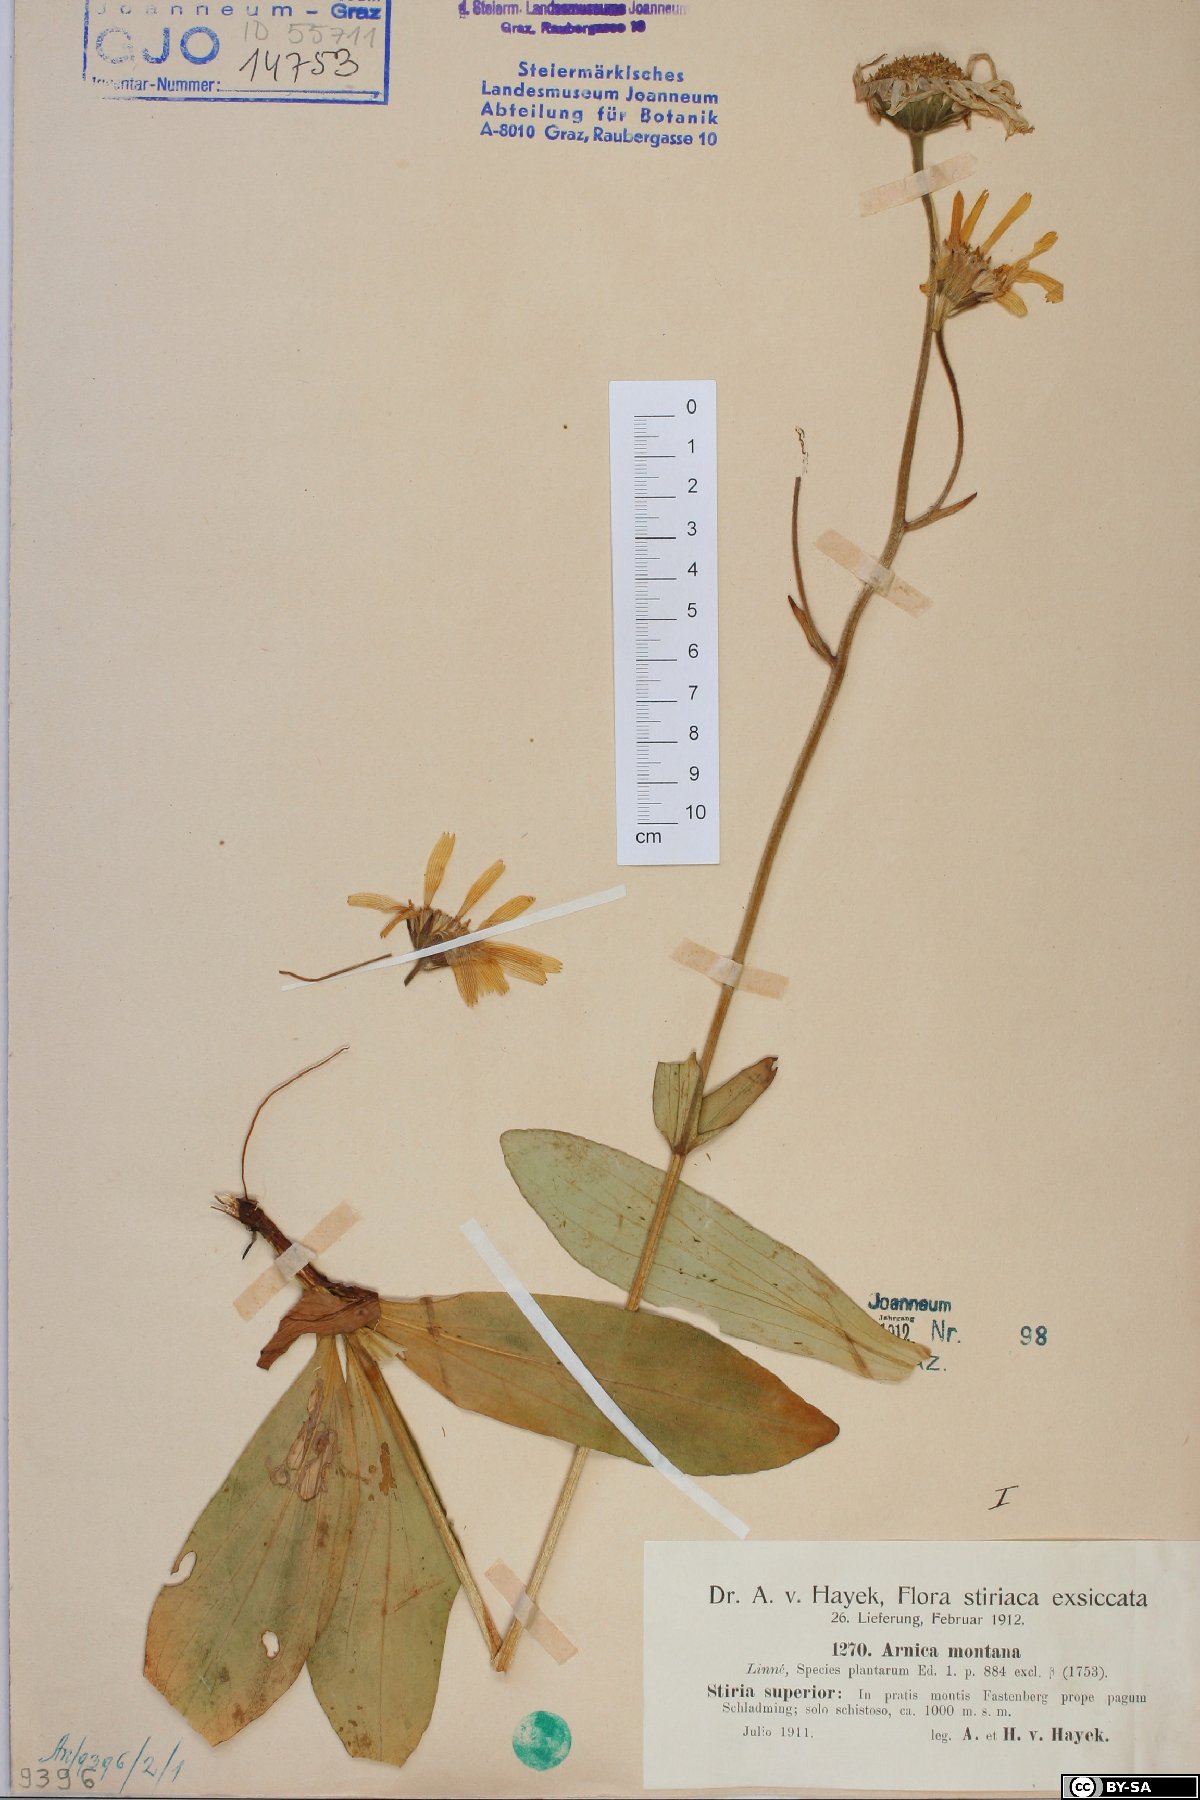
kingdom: Plantae
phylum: Tracheophyta
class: Magnoliopsida
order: Asterales
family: Asteraceae
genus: Arnica
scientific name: Arnica montana
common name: Leopard's bane
